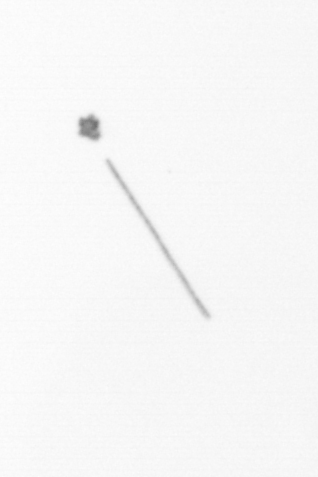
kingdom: Chromista
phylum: Ochrophyta
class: Bacillariophyceae
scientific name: Bacillariophyceae
